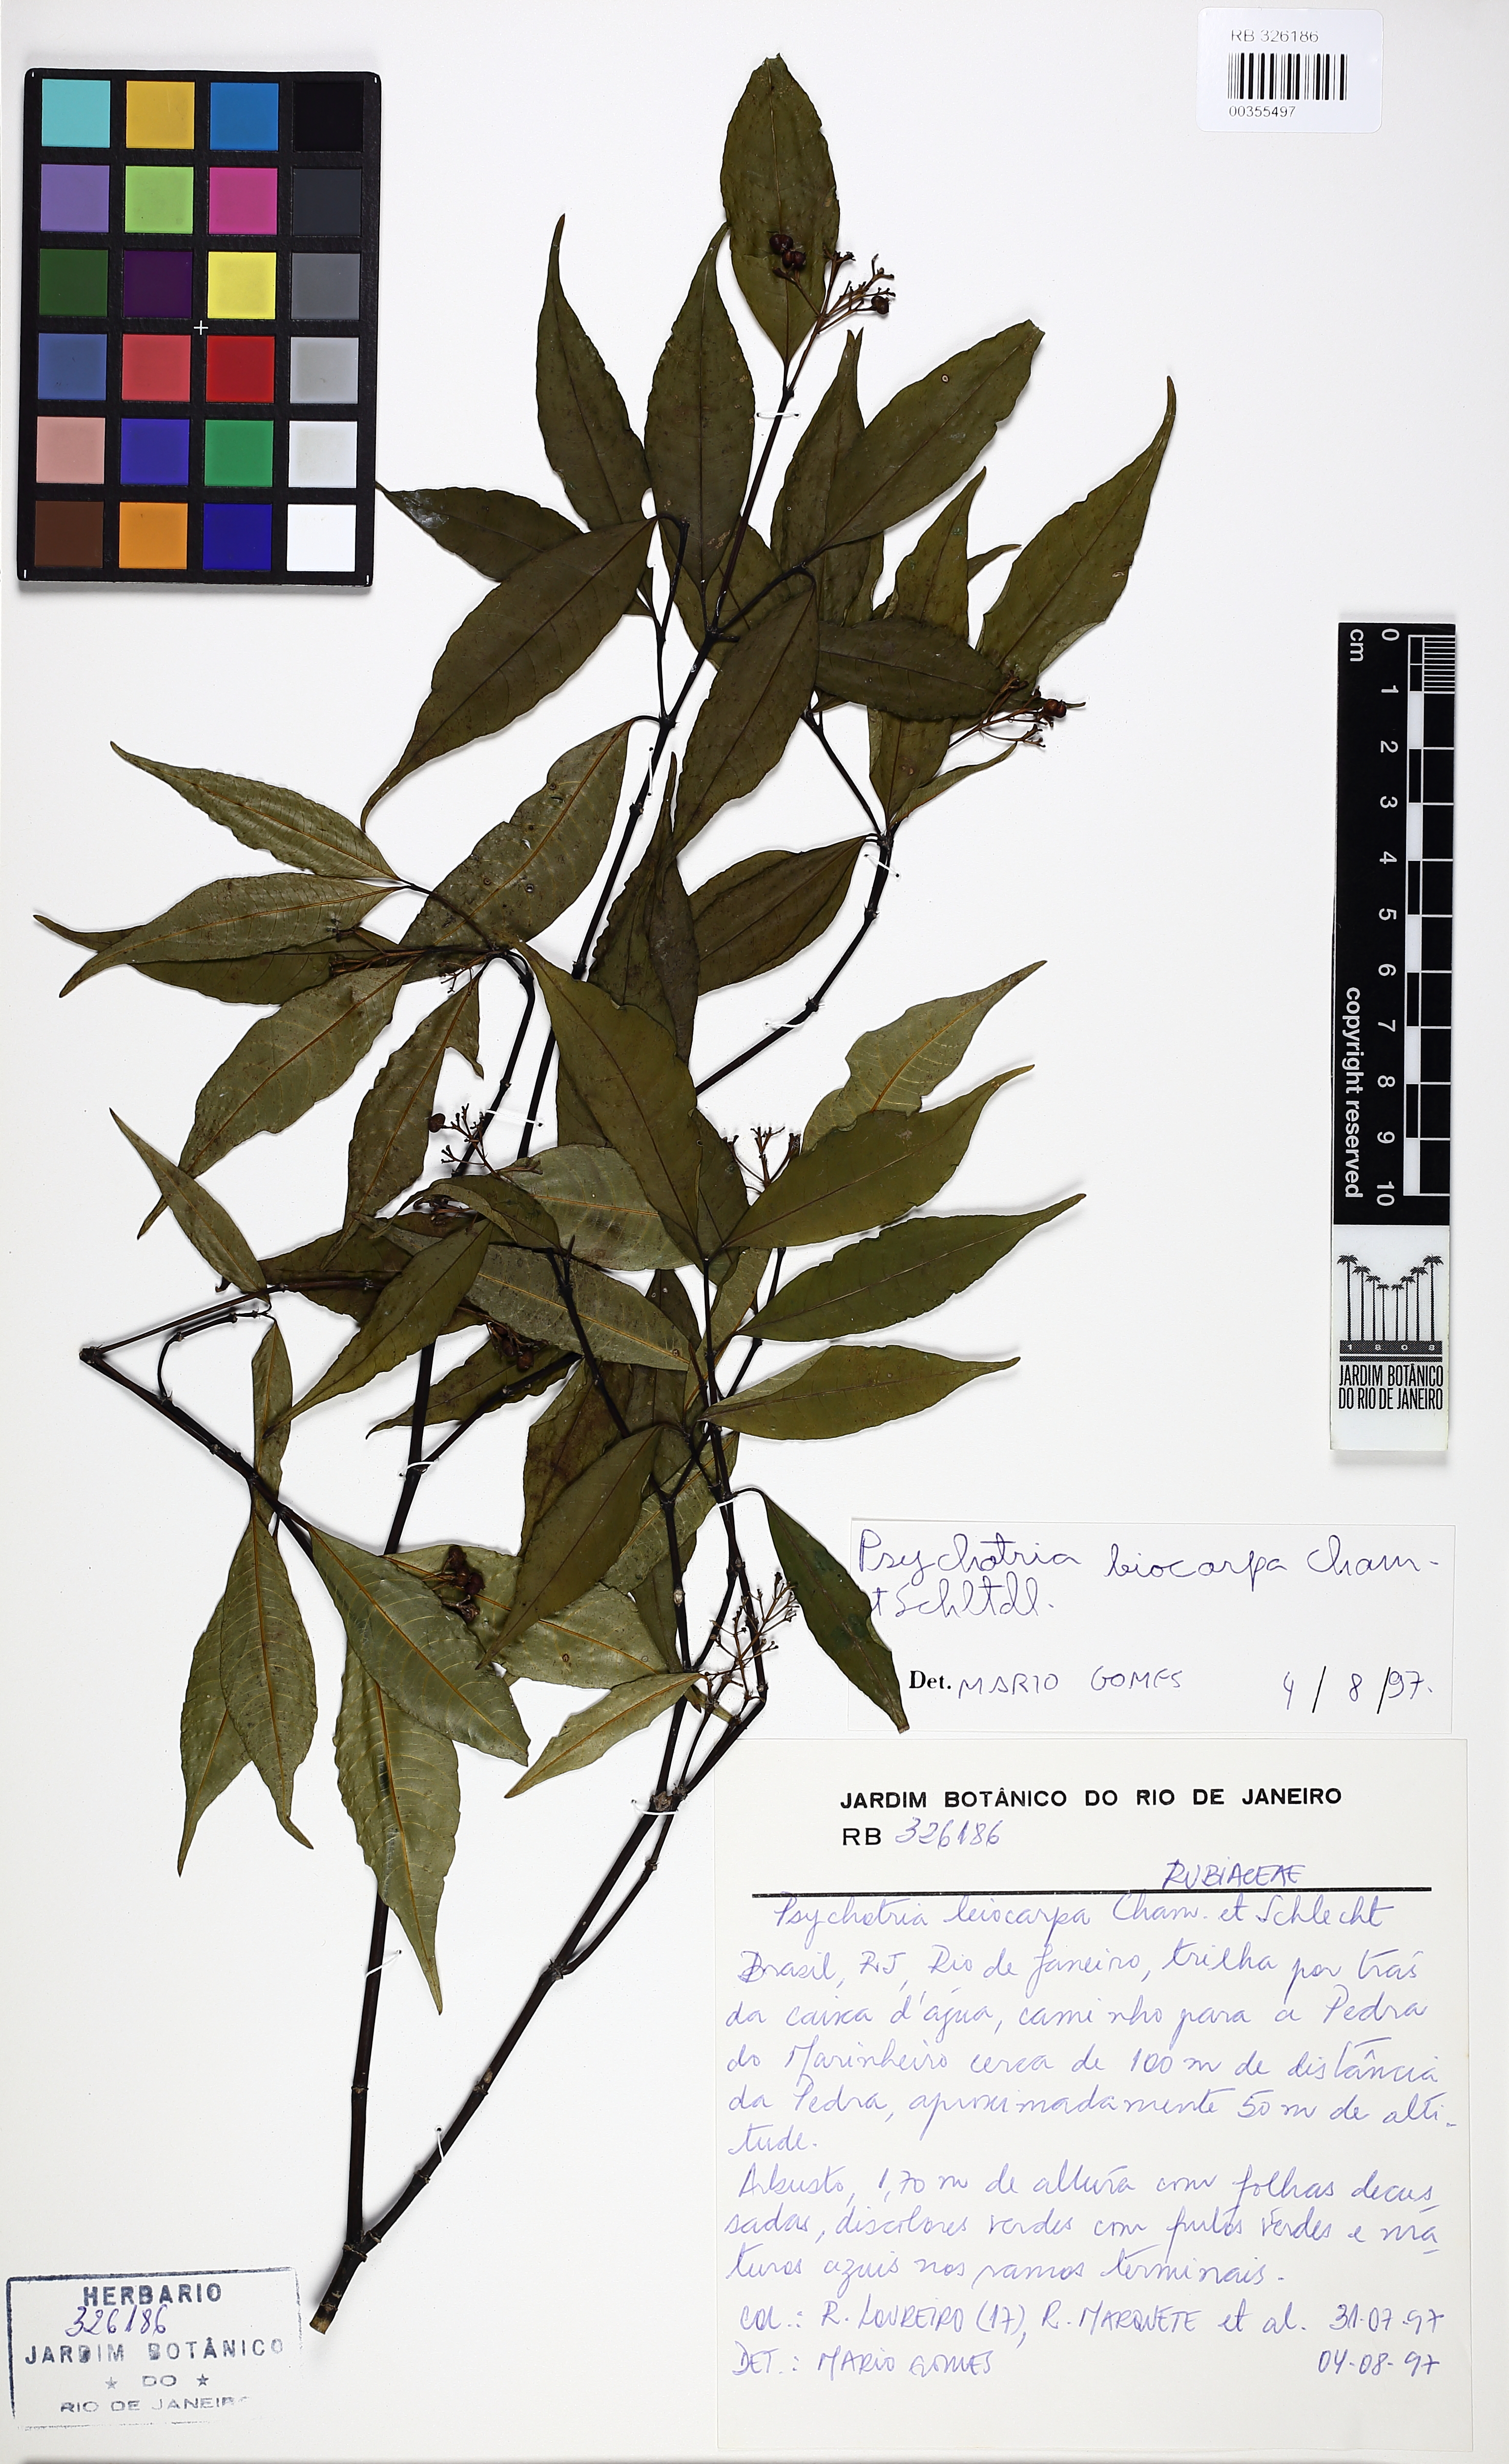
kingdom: Plantae
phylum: Tracheophyta
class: Magnoliopsida
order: Gentianales
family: Rubiaceae
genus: Psychotria
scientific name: Psychotria leiocarpa
